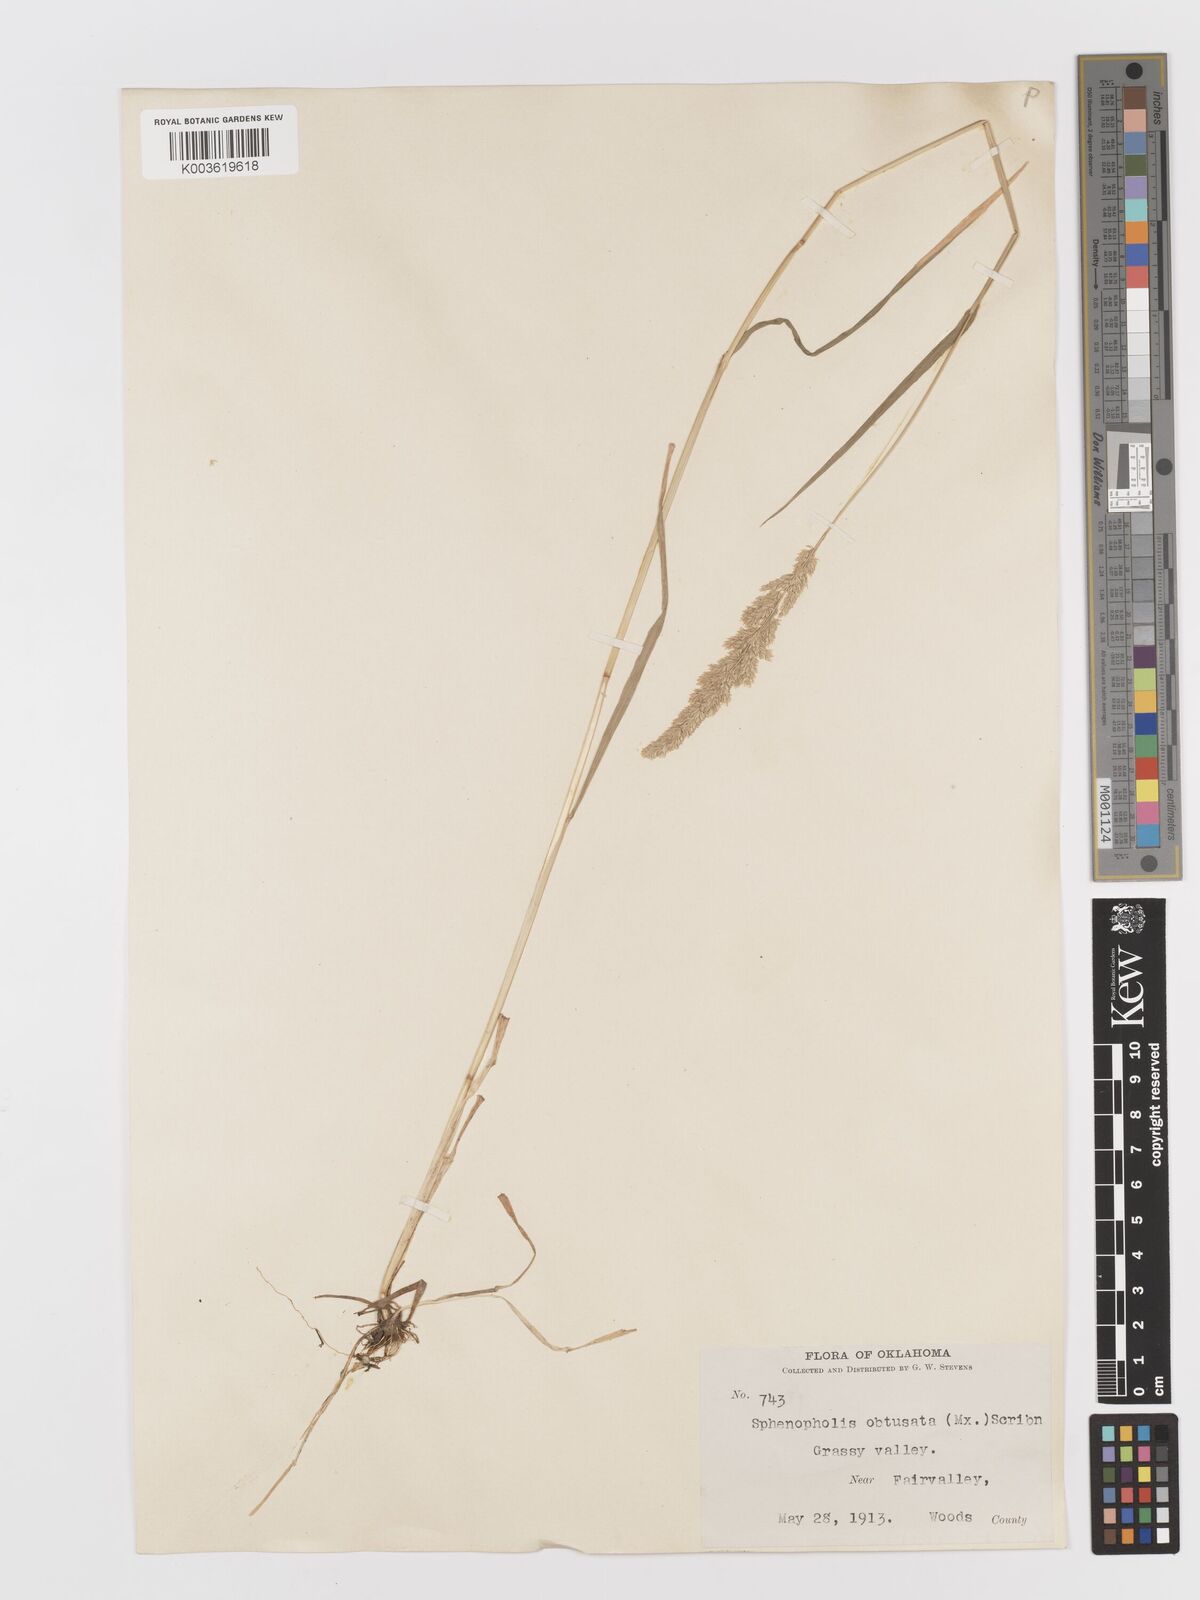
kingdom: Plantae
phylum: Tracheophyta
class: Liliopsida
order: Poales
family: Poaceae
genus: Sphenopholis
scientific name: Sphenopholis obtusata
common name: Prairie grass
